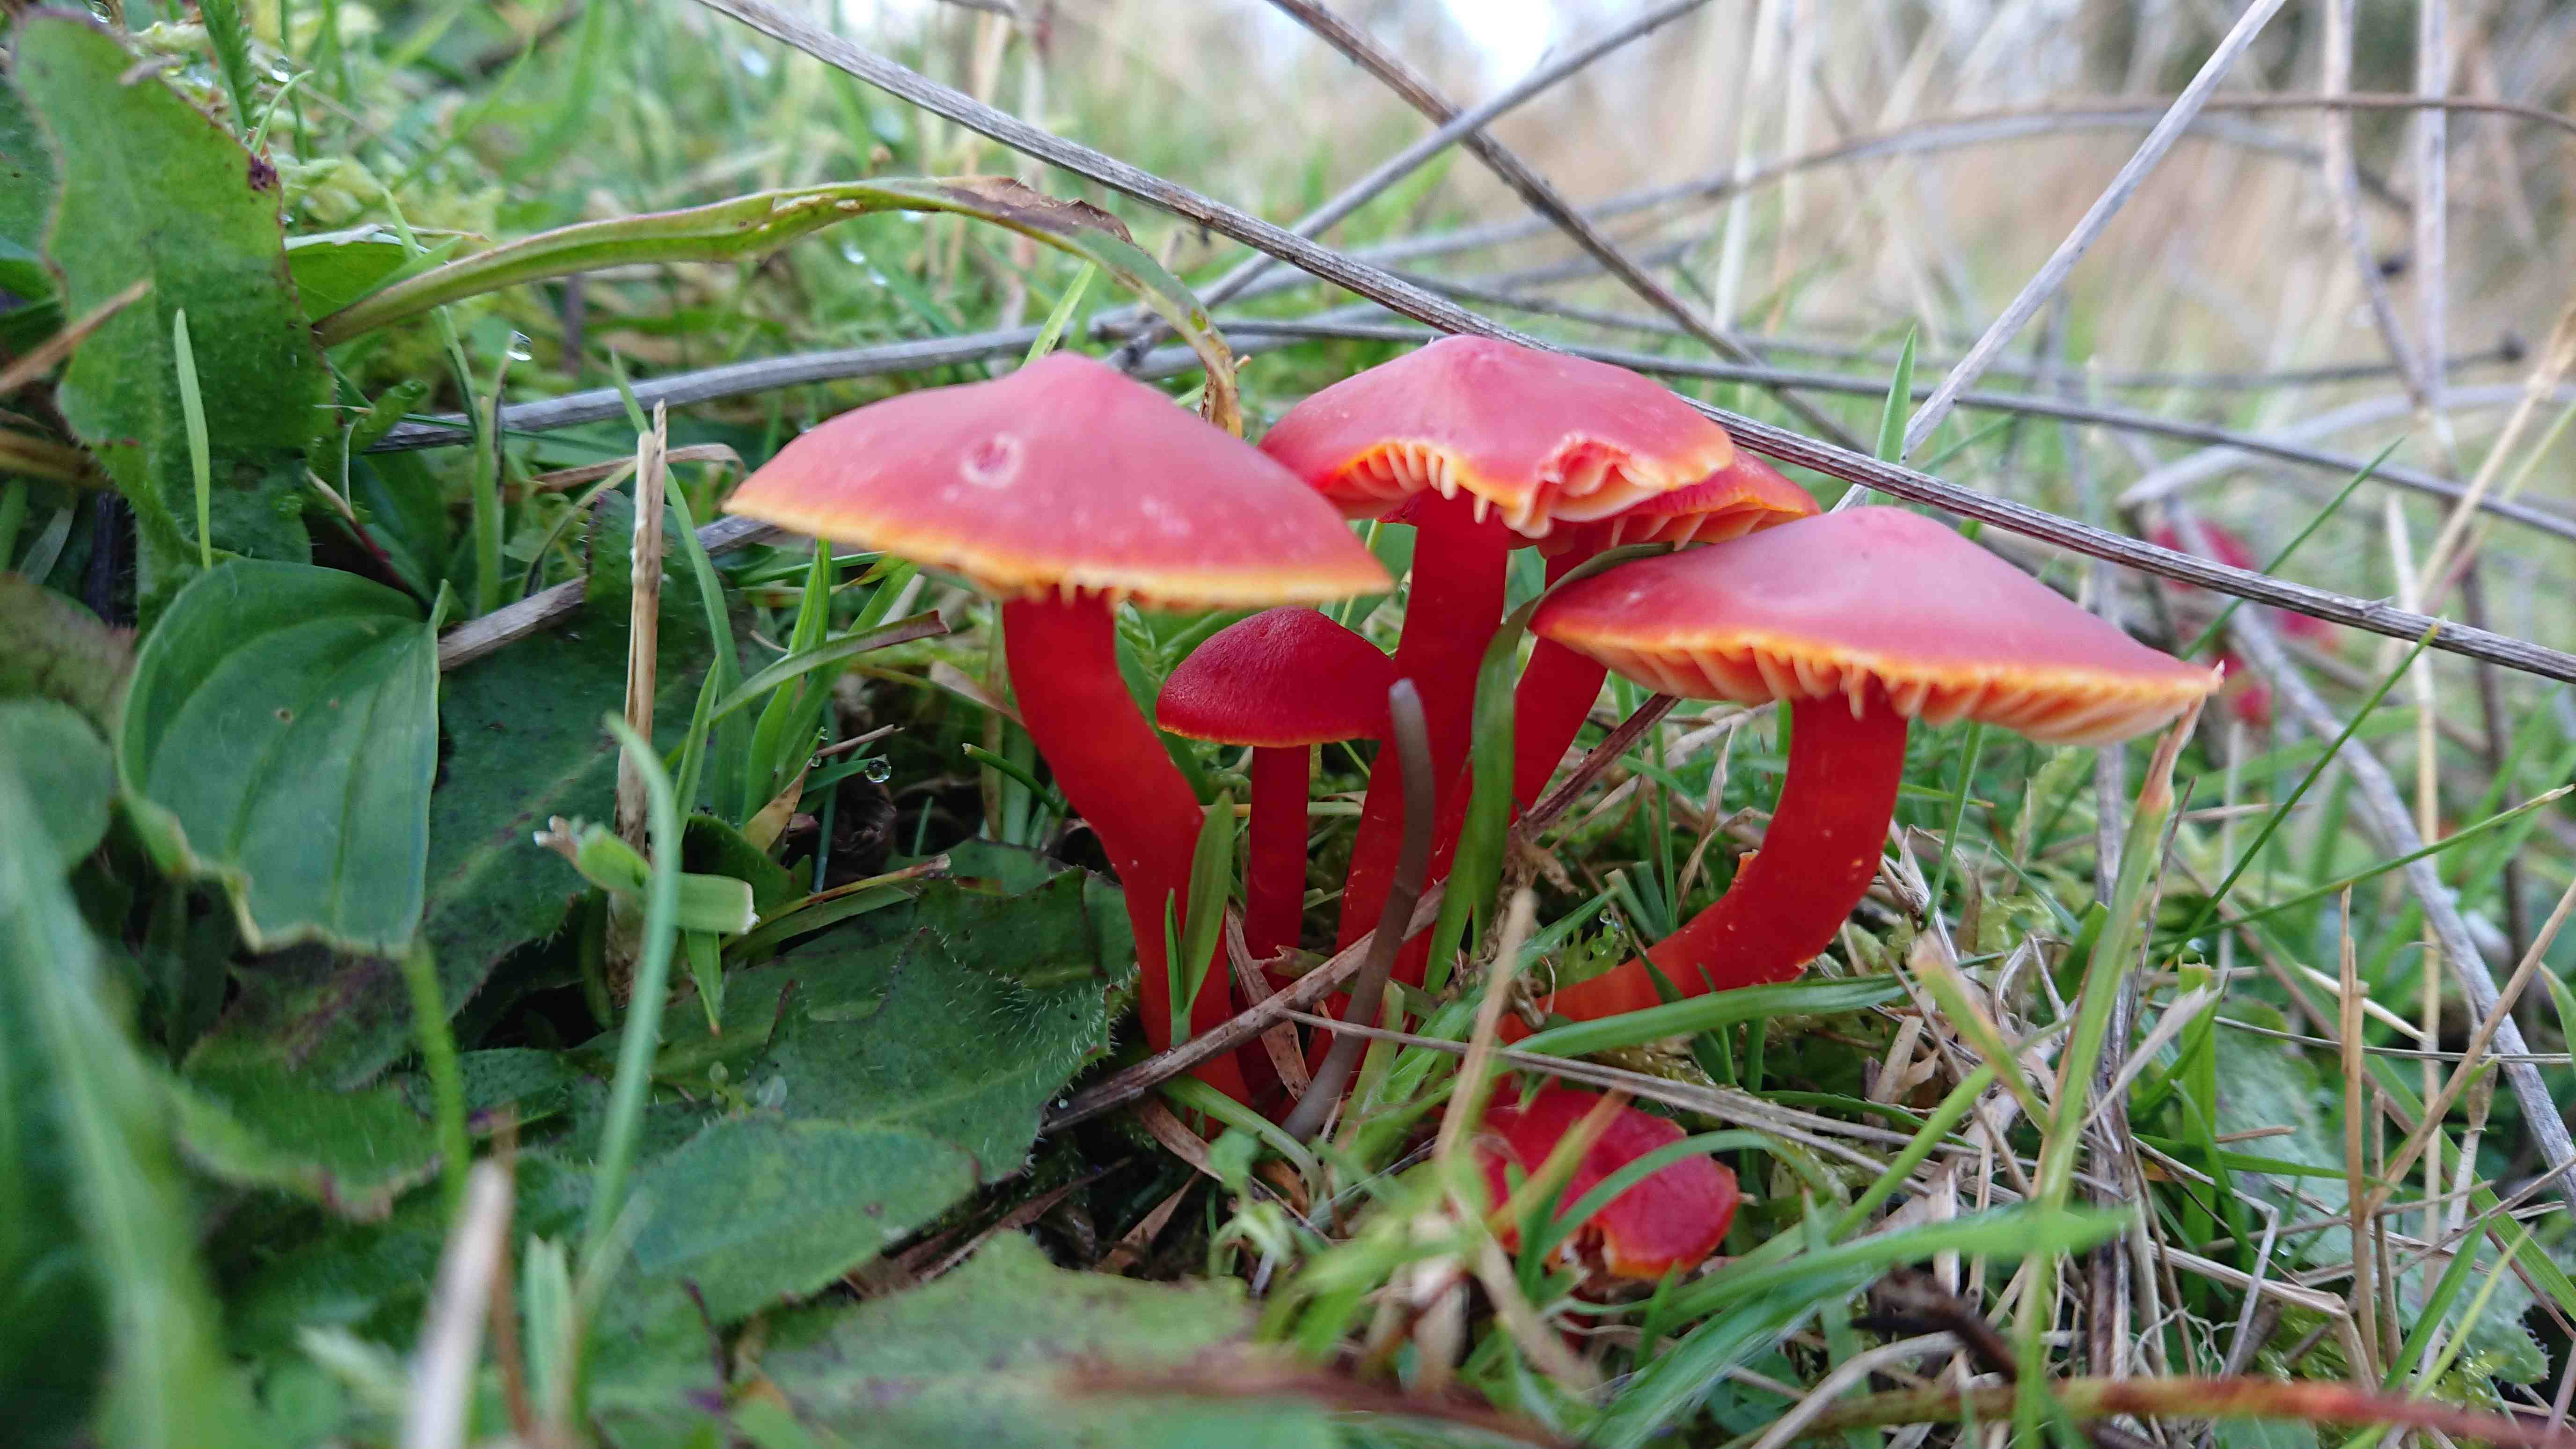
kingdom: Fungi
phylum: Basidiomycota
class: Agaricomycetes
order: Agaricales
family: Hygrophoraceae
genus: Hygrocybe
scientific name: Hygrocybe coccinea
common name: cinnober-vokshat
